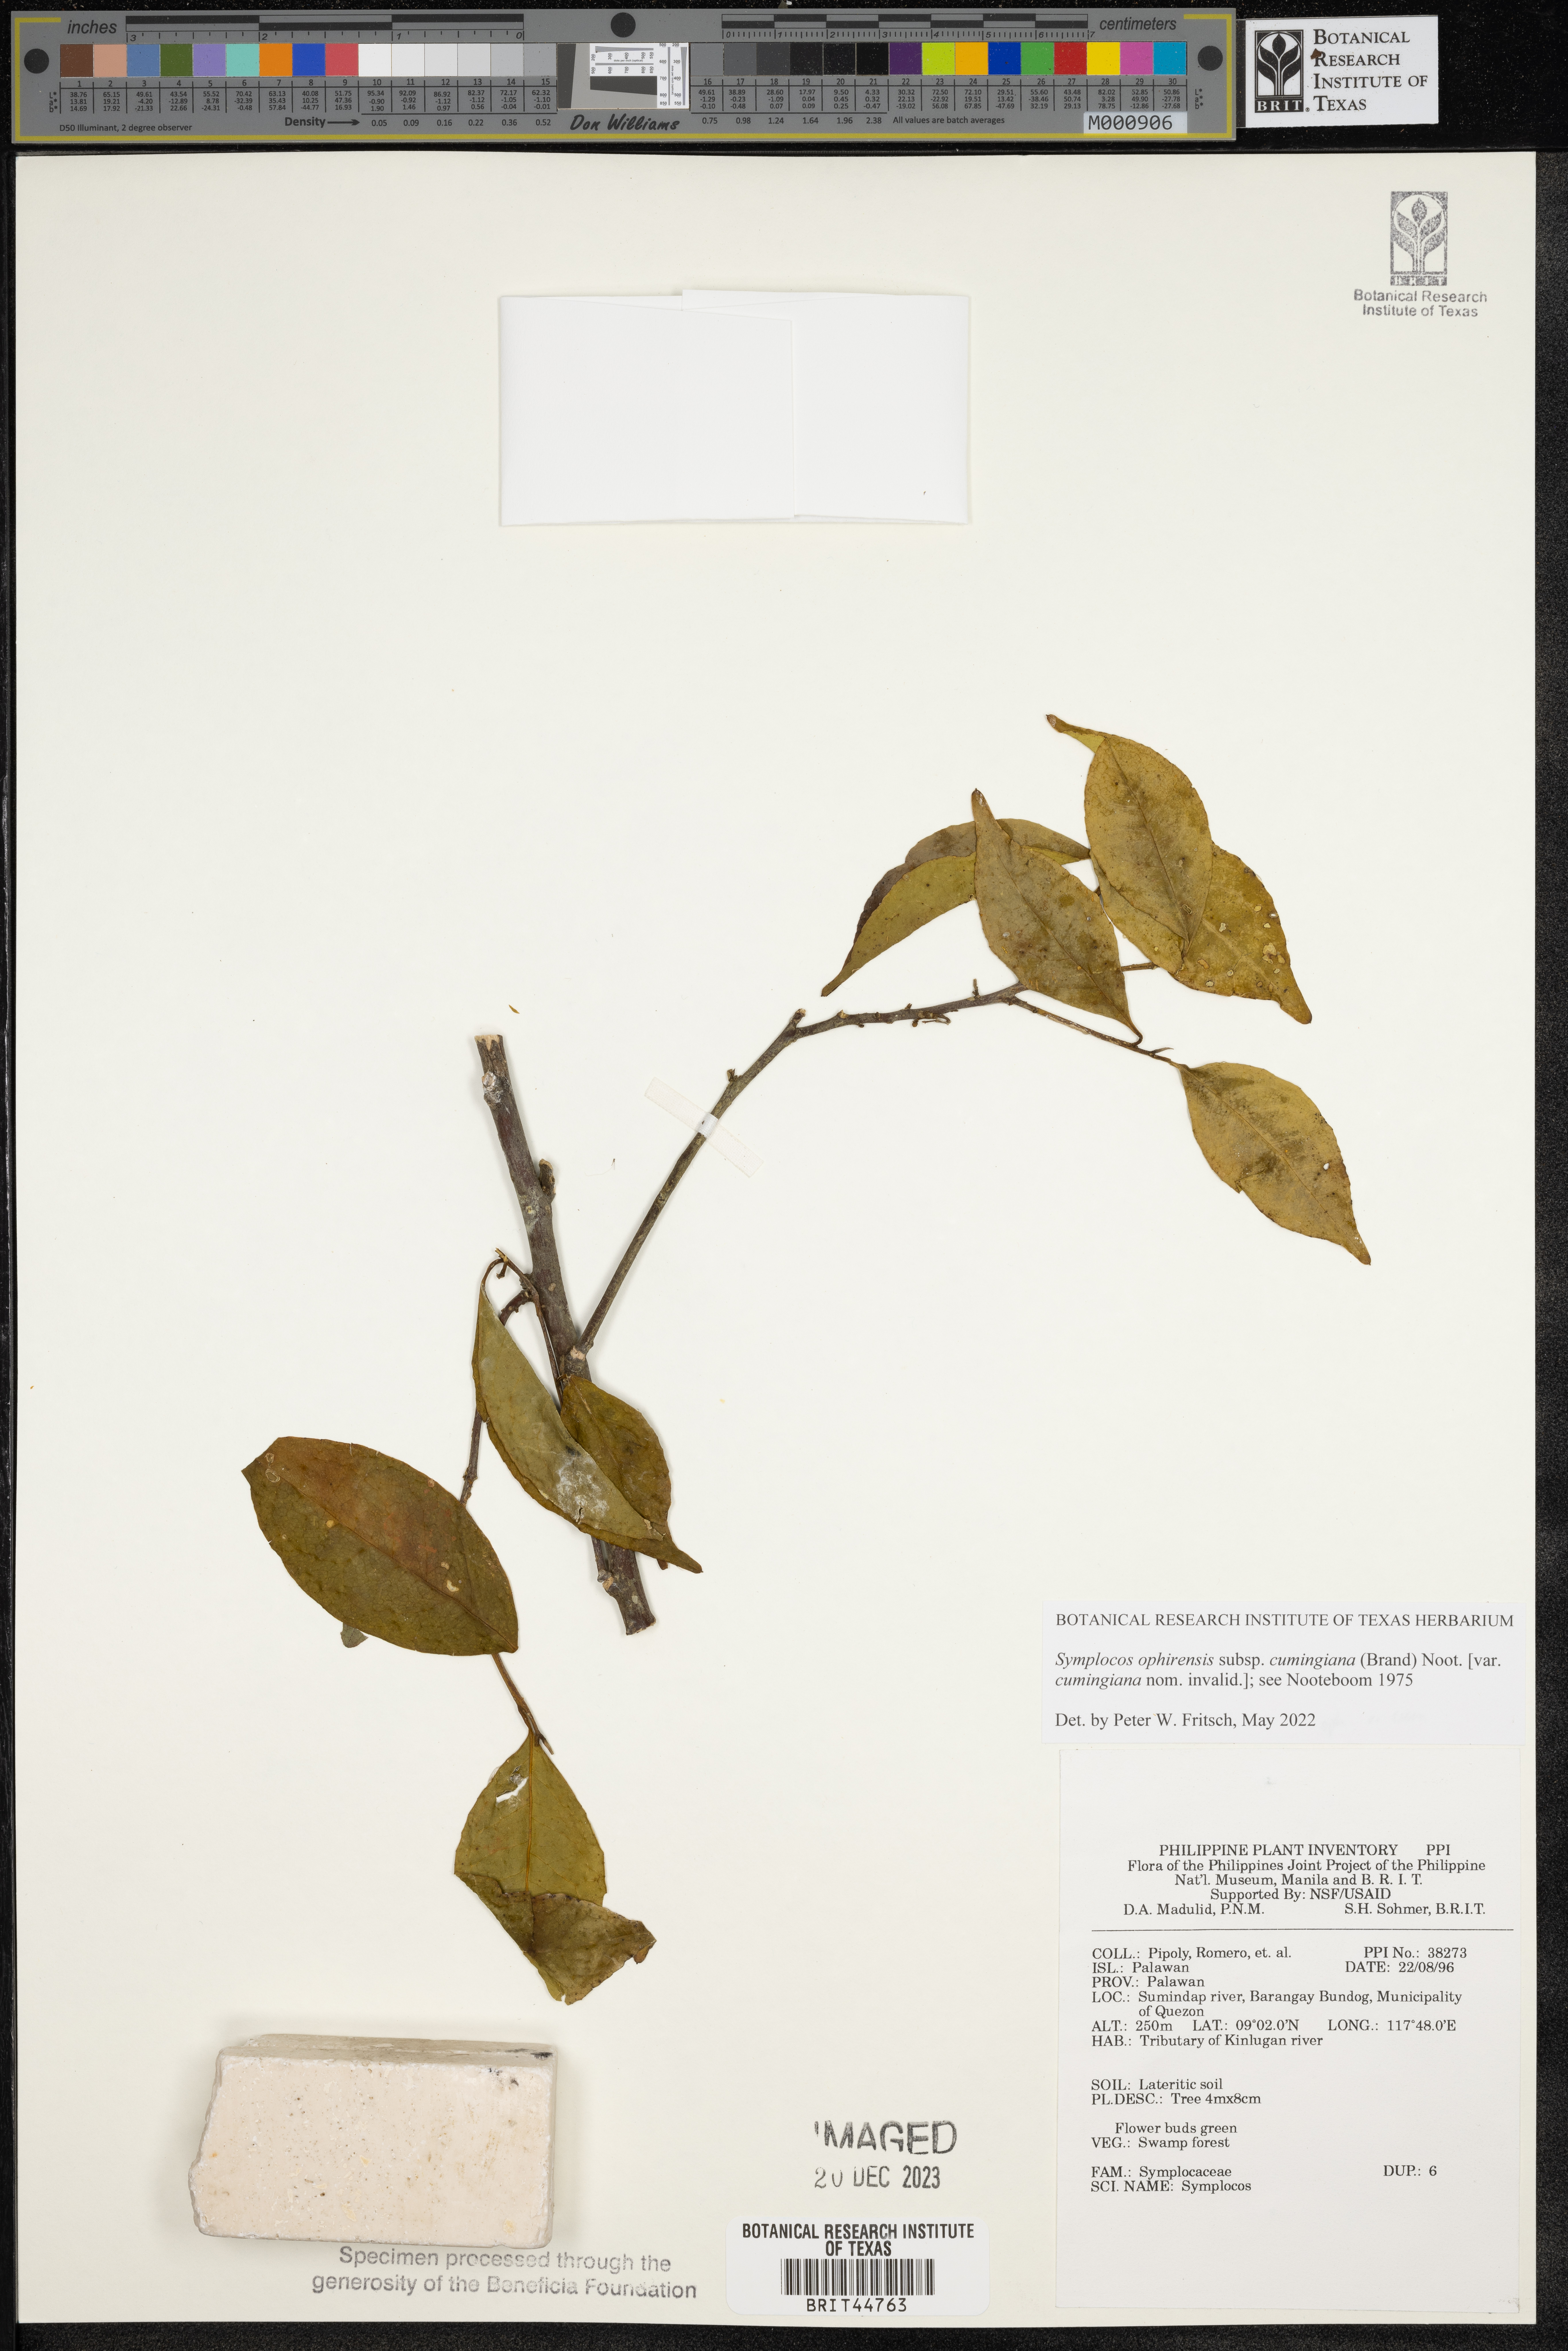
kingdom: Plantae
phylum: Tracheophyta
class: Magnoliopsida
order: Ericales
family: Symplocaceae
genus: Symplocos
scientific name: Symplocos
